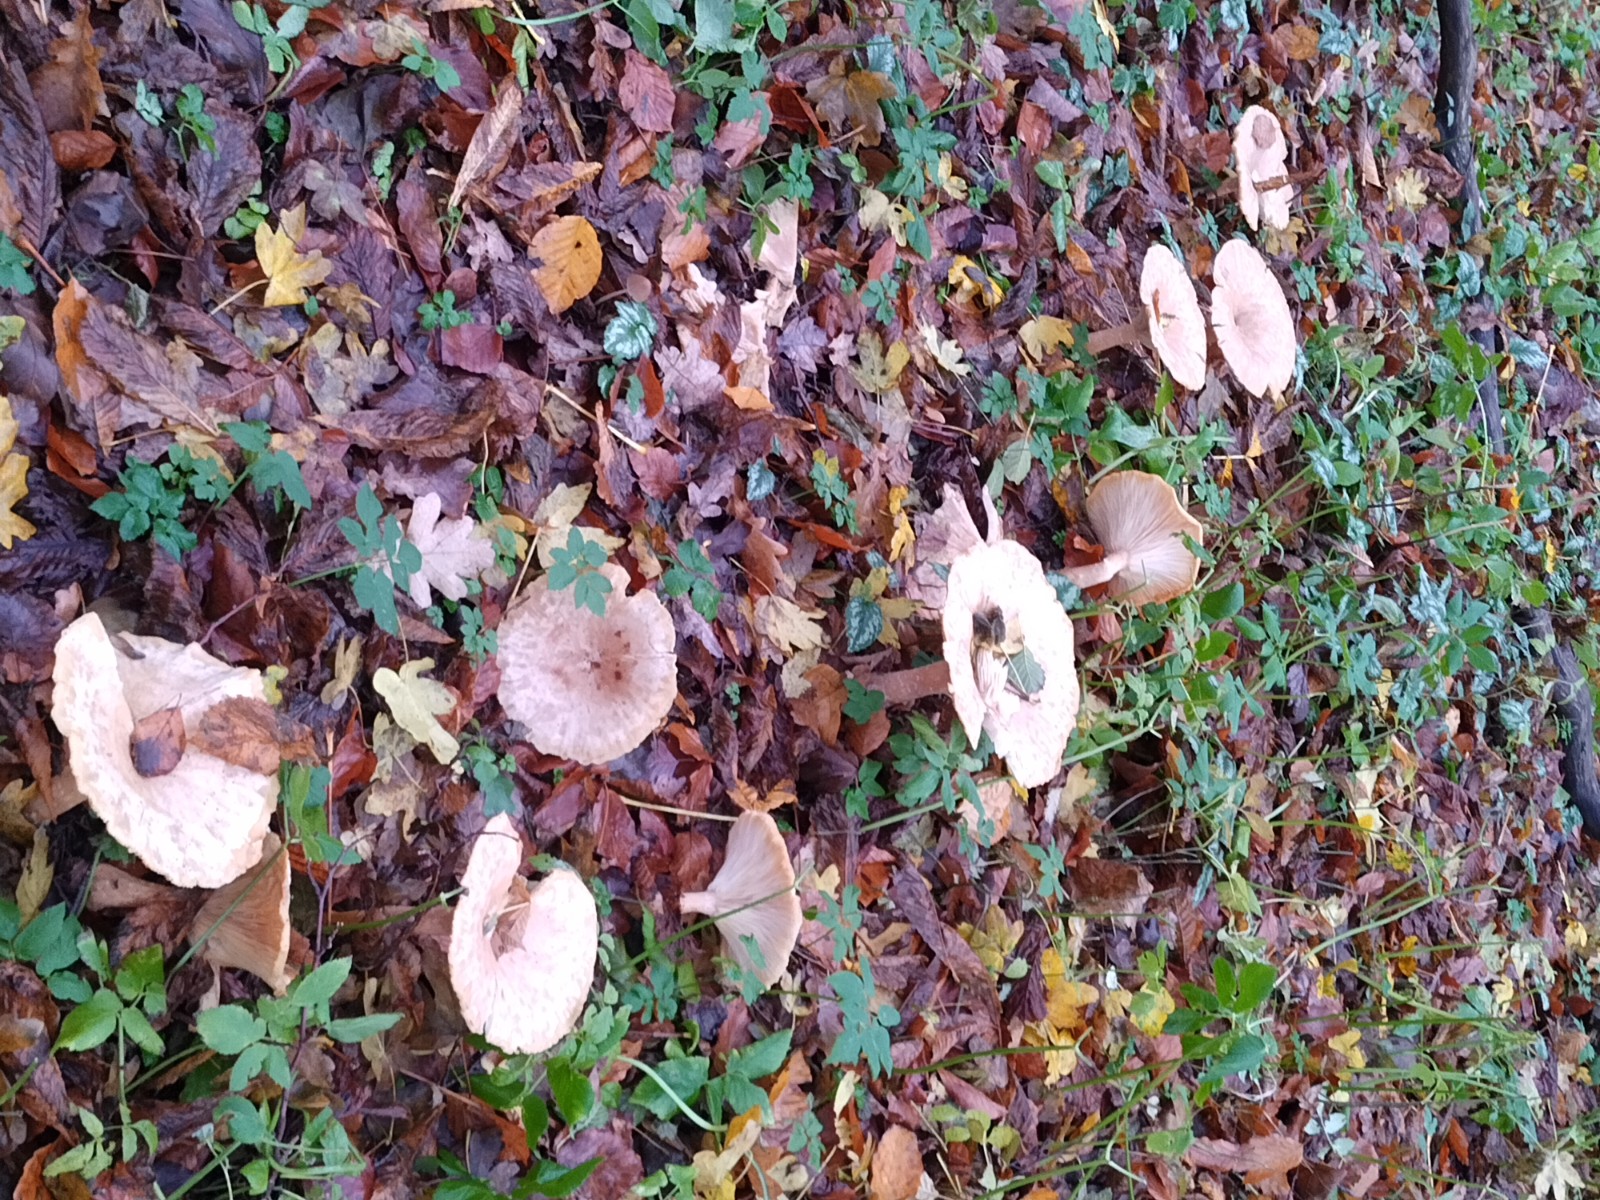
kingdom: Fungi
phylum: Basidiomycota
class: Agaricomycetes
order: Agaricales
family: Tricholomataceae
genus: Infundibulicybe
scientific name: Infundibulicybe geotropa
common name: stor tragthat
